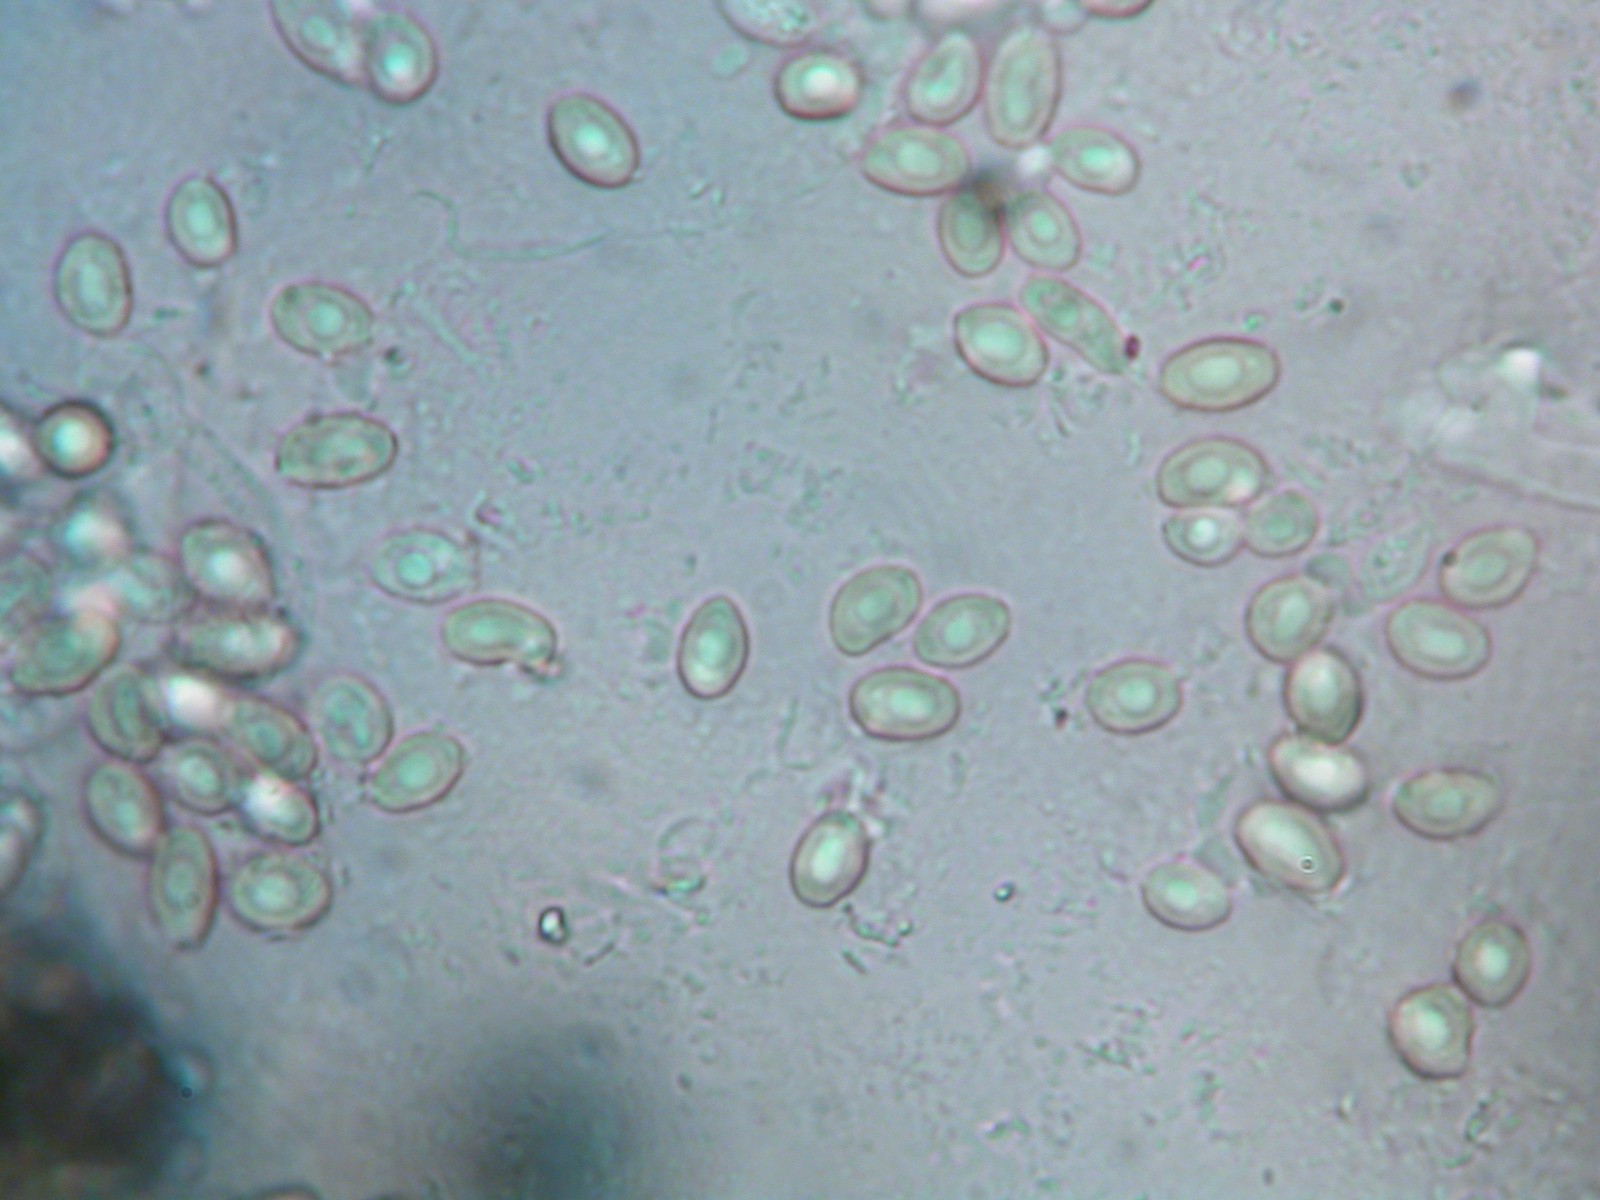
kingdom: Fungi
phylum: Basidiomycota
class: Agaricomycetes
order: Polyporales
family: Dacryobolaceae
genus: Postia
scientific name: Postia ptychogaster
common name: støvende kødporesvamp
